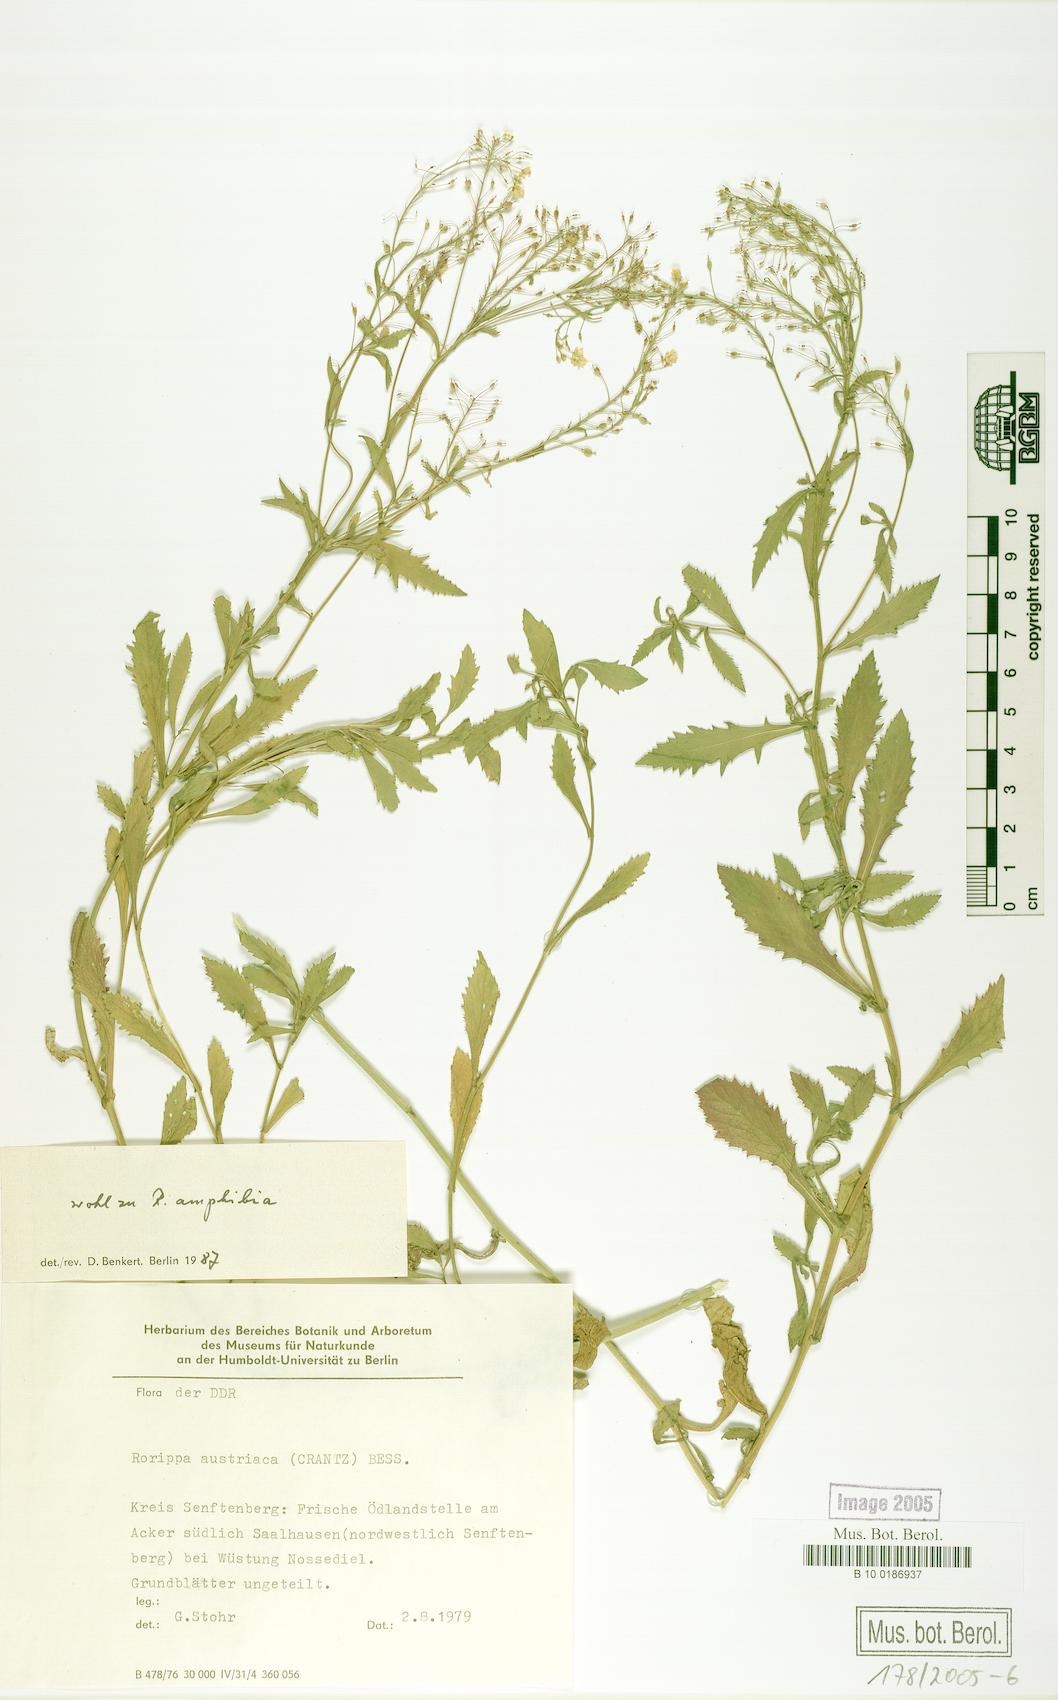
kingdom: Plantae
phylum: Tracheophyta
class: Magnoliopsida
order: Brassicales
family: Brassicaceae
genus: Rorippa
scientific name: Rorippa austriaca
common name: Austrian yellow-cress
